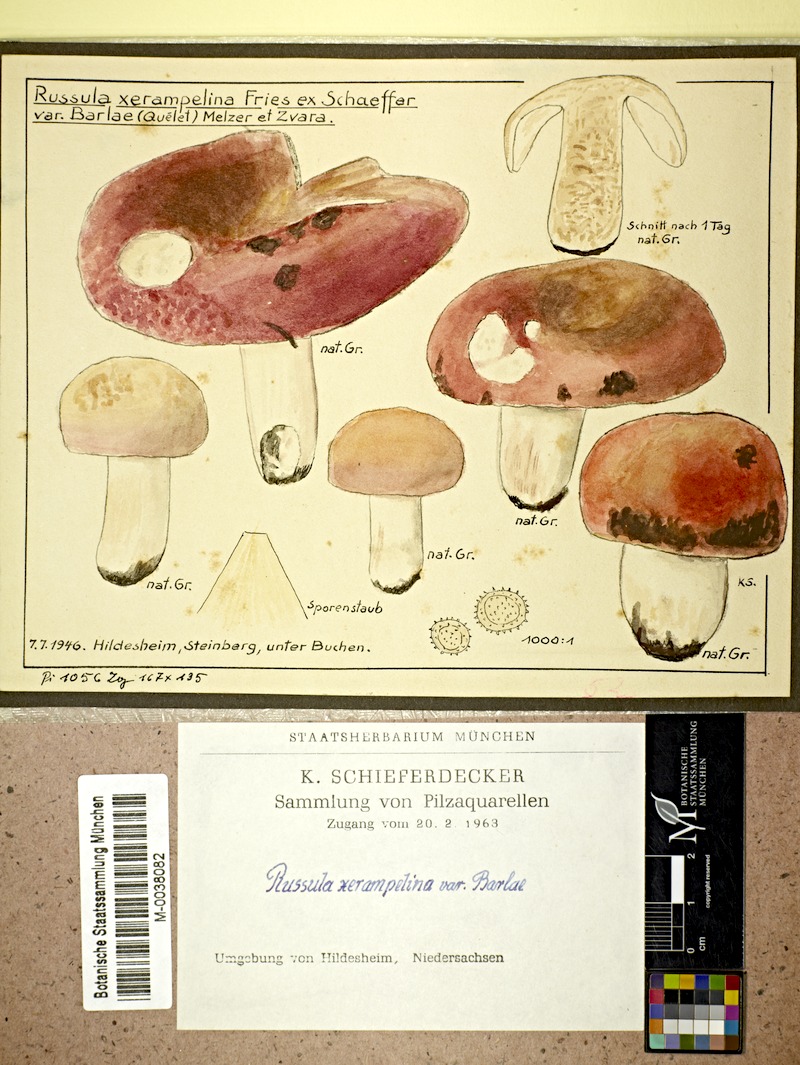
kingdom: Fungi
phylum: Basidiomycota
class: Agaricomycetes
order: Russulales
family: Russulaceae
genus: Russula
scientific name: Russula xerampelina
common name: Crab brittlegill
